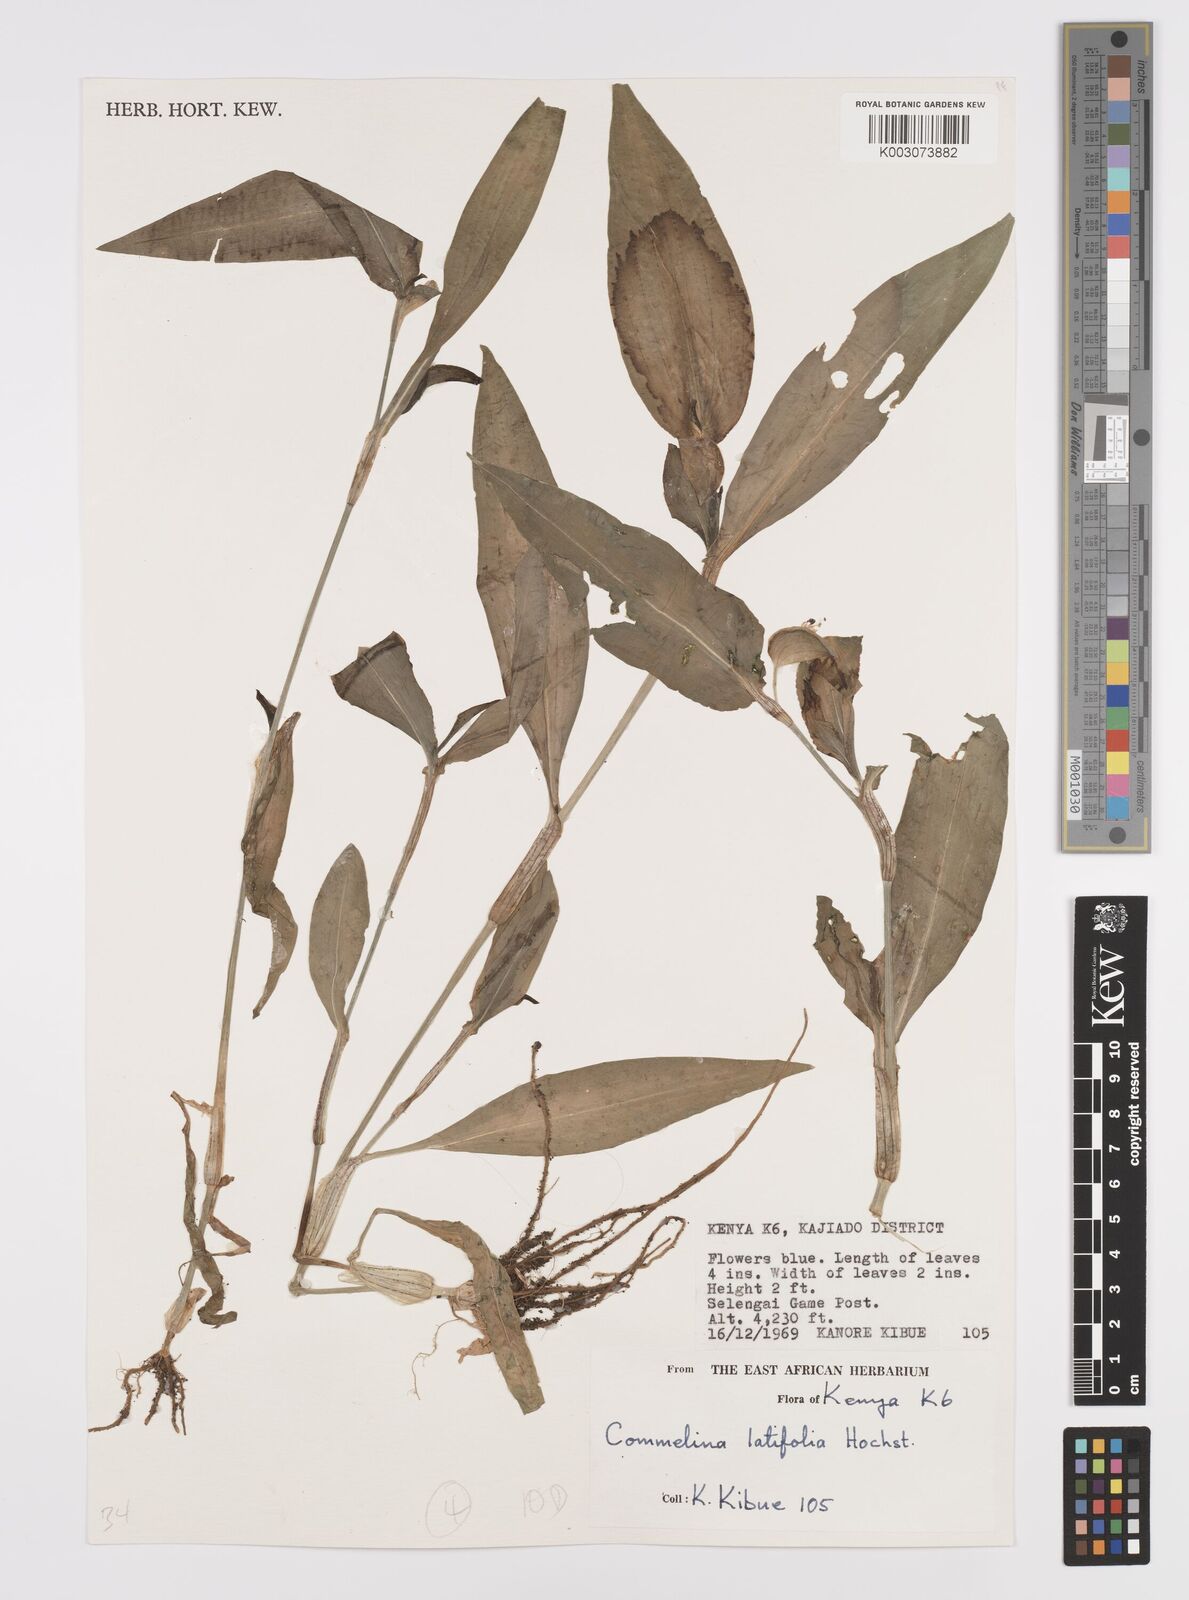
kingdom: Plantae
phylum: Tracheophyta
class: Liliopsida
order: Commelinales
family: Commelinaceae
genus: Commelina
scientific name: Commelina latifolia
